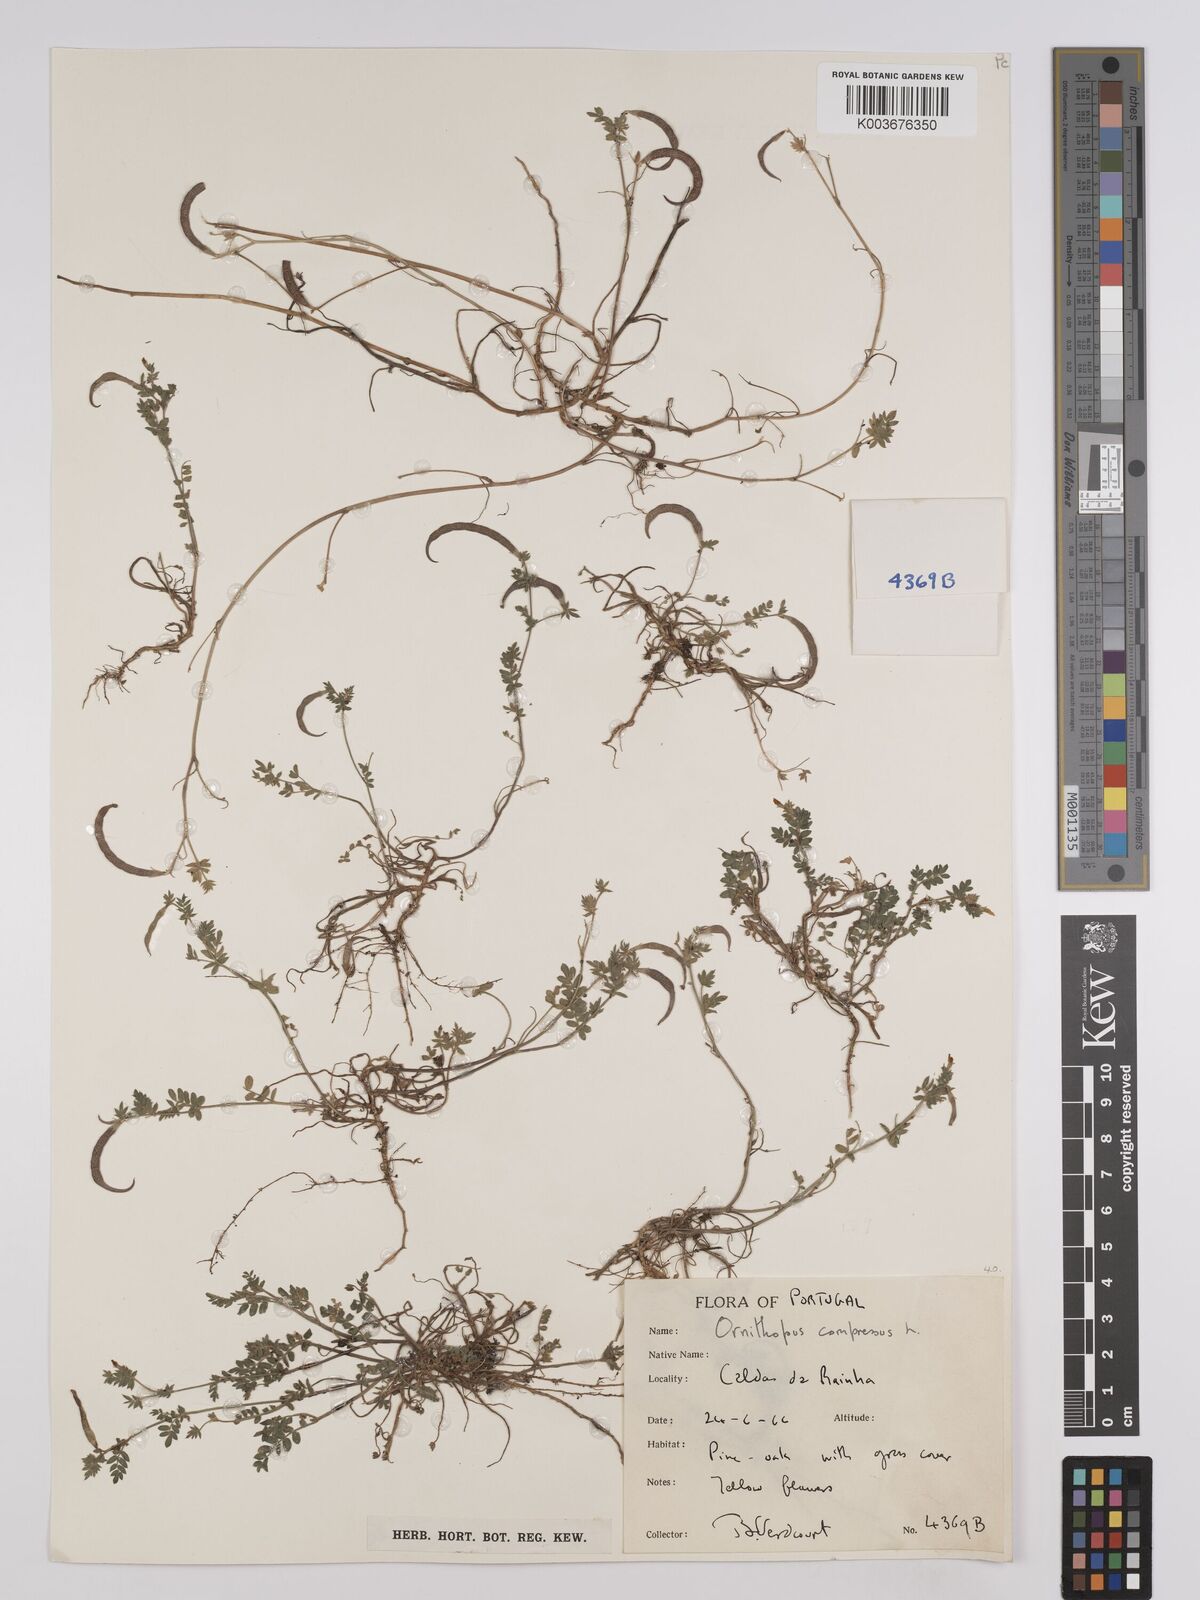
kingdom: Plantae
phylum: Tracheophyta
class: Magnoliopsida
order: Fabales
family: Fabaceae
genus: Ornithopus
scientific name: Ornithopus compressus
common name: Yellow serradella
